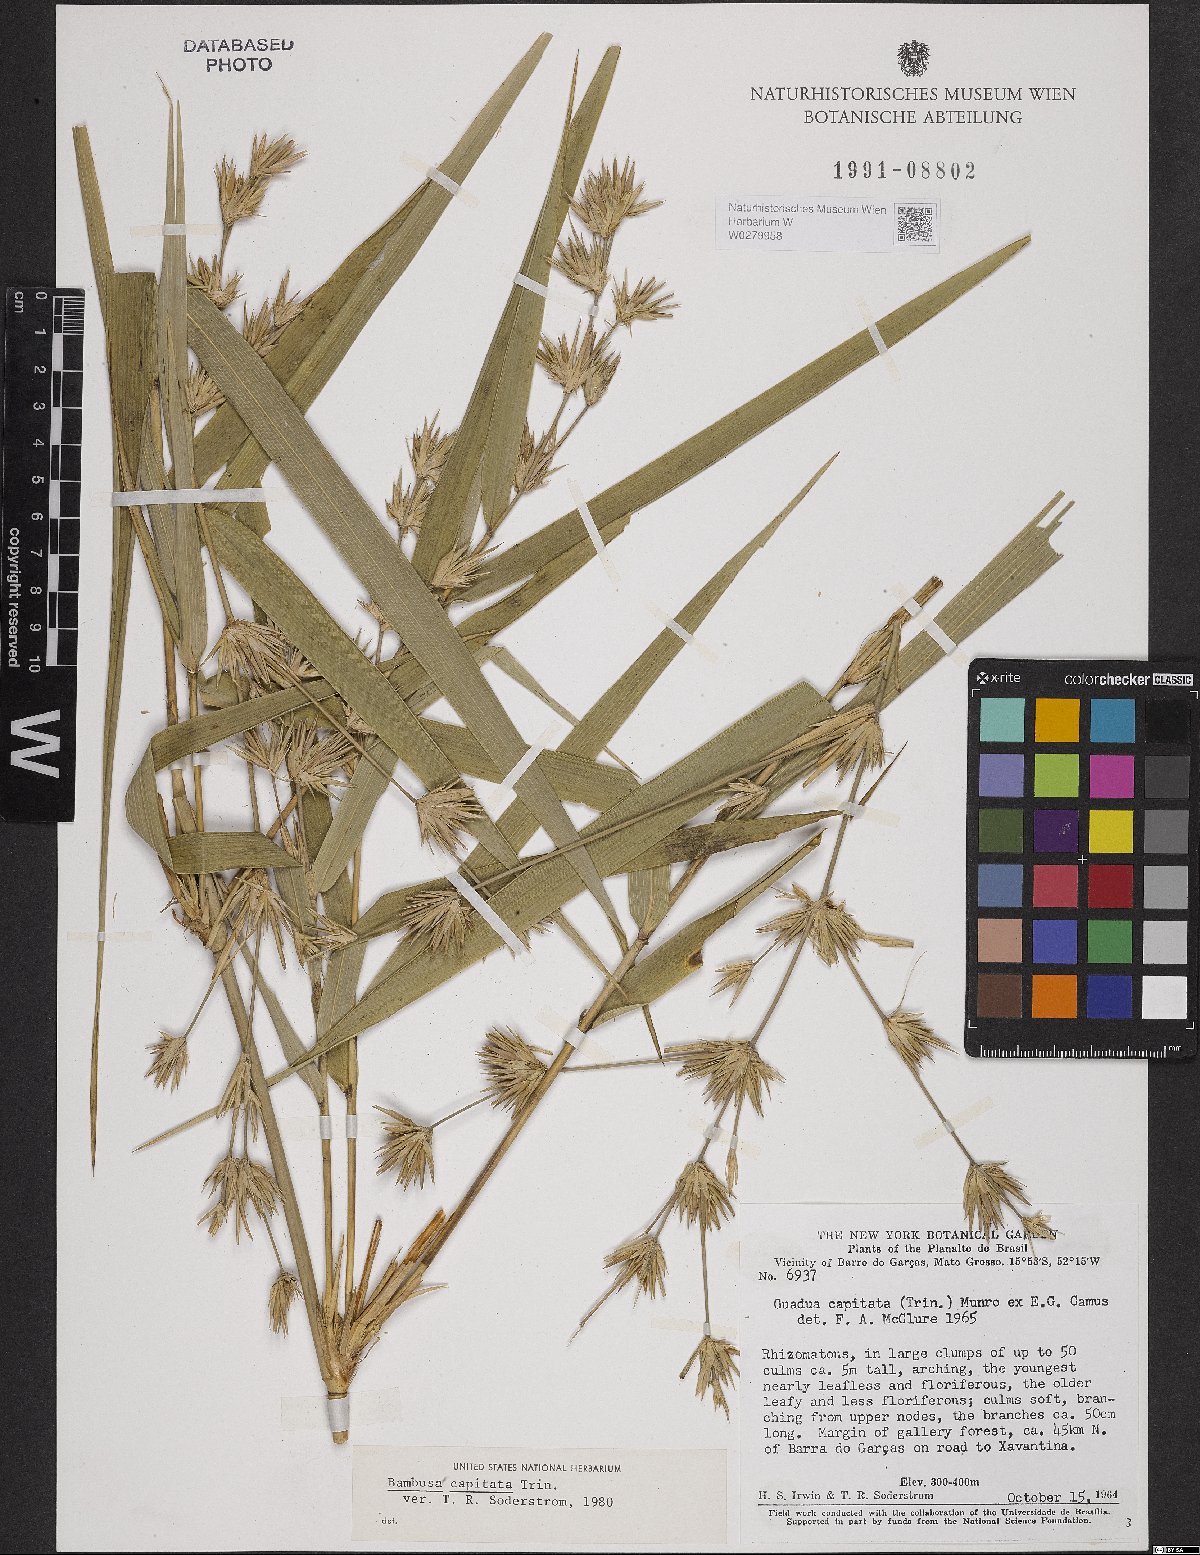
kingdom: Plantae
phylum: Tracheophyta
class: Liliopsida
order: Poales
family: Poaceae
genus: Eremocaulon
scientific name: Eremocaulon capitatum
